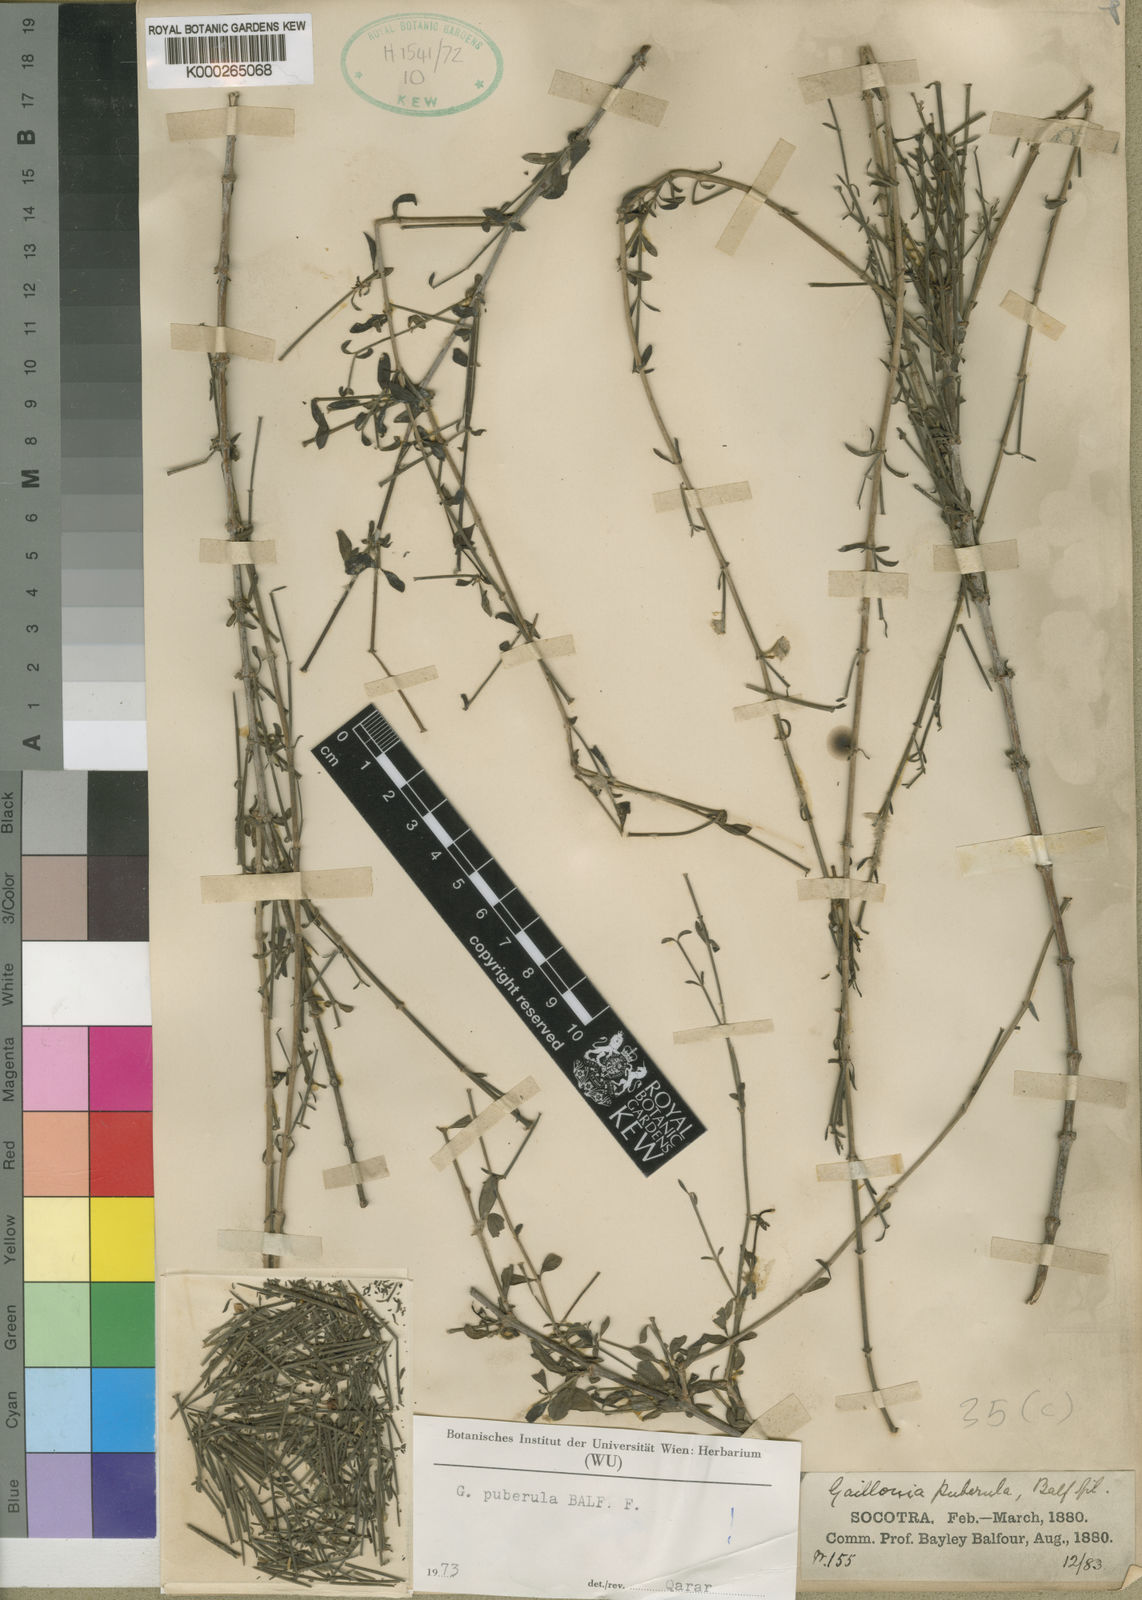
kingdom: Plantae
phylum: Tracheophyta
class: Magnoliopsida
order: Gentianales
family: Rubiaceae
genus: Plocama
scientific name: Plocama puberula
